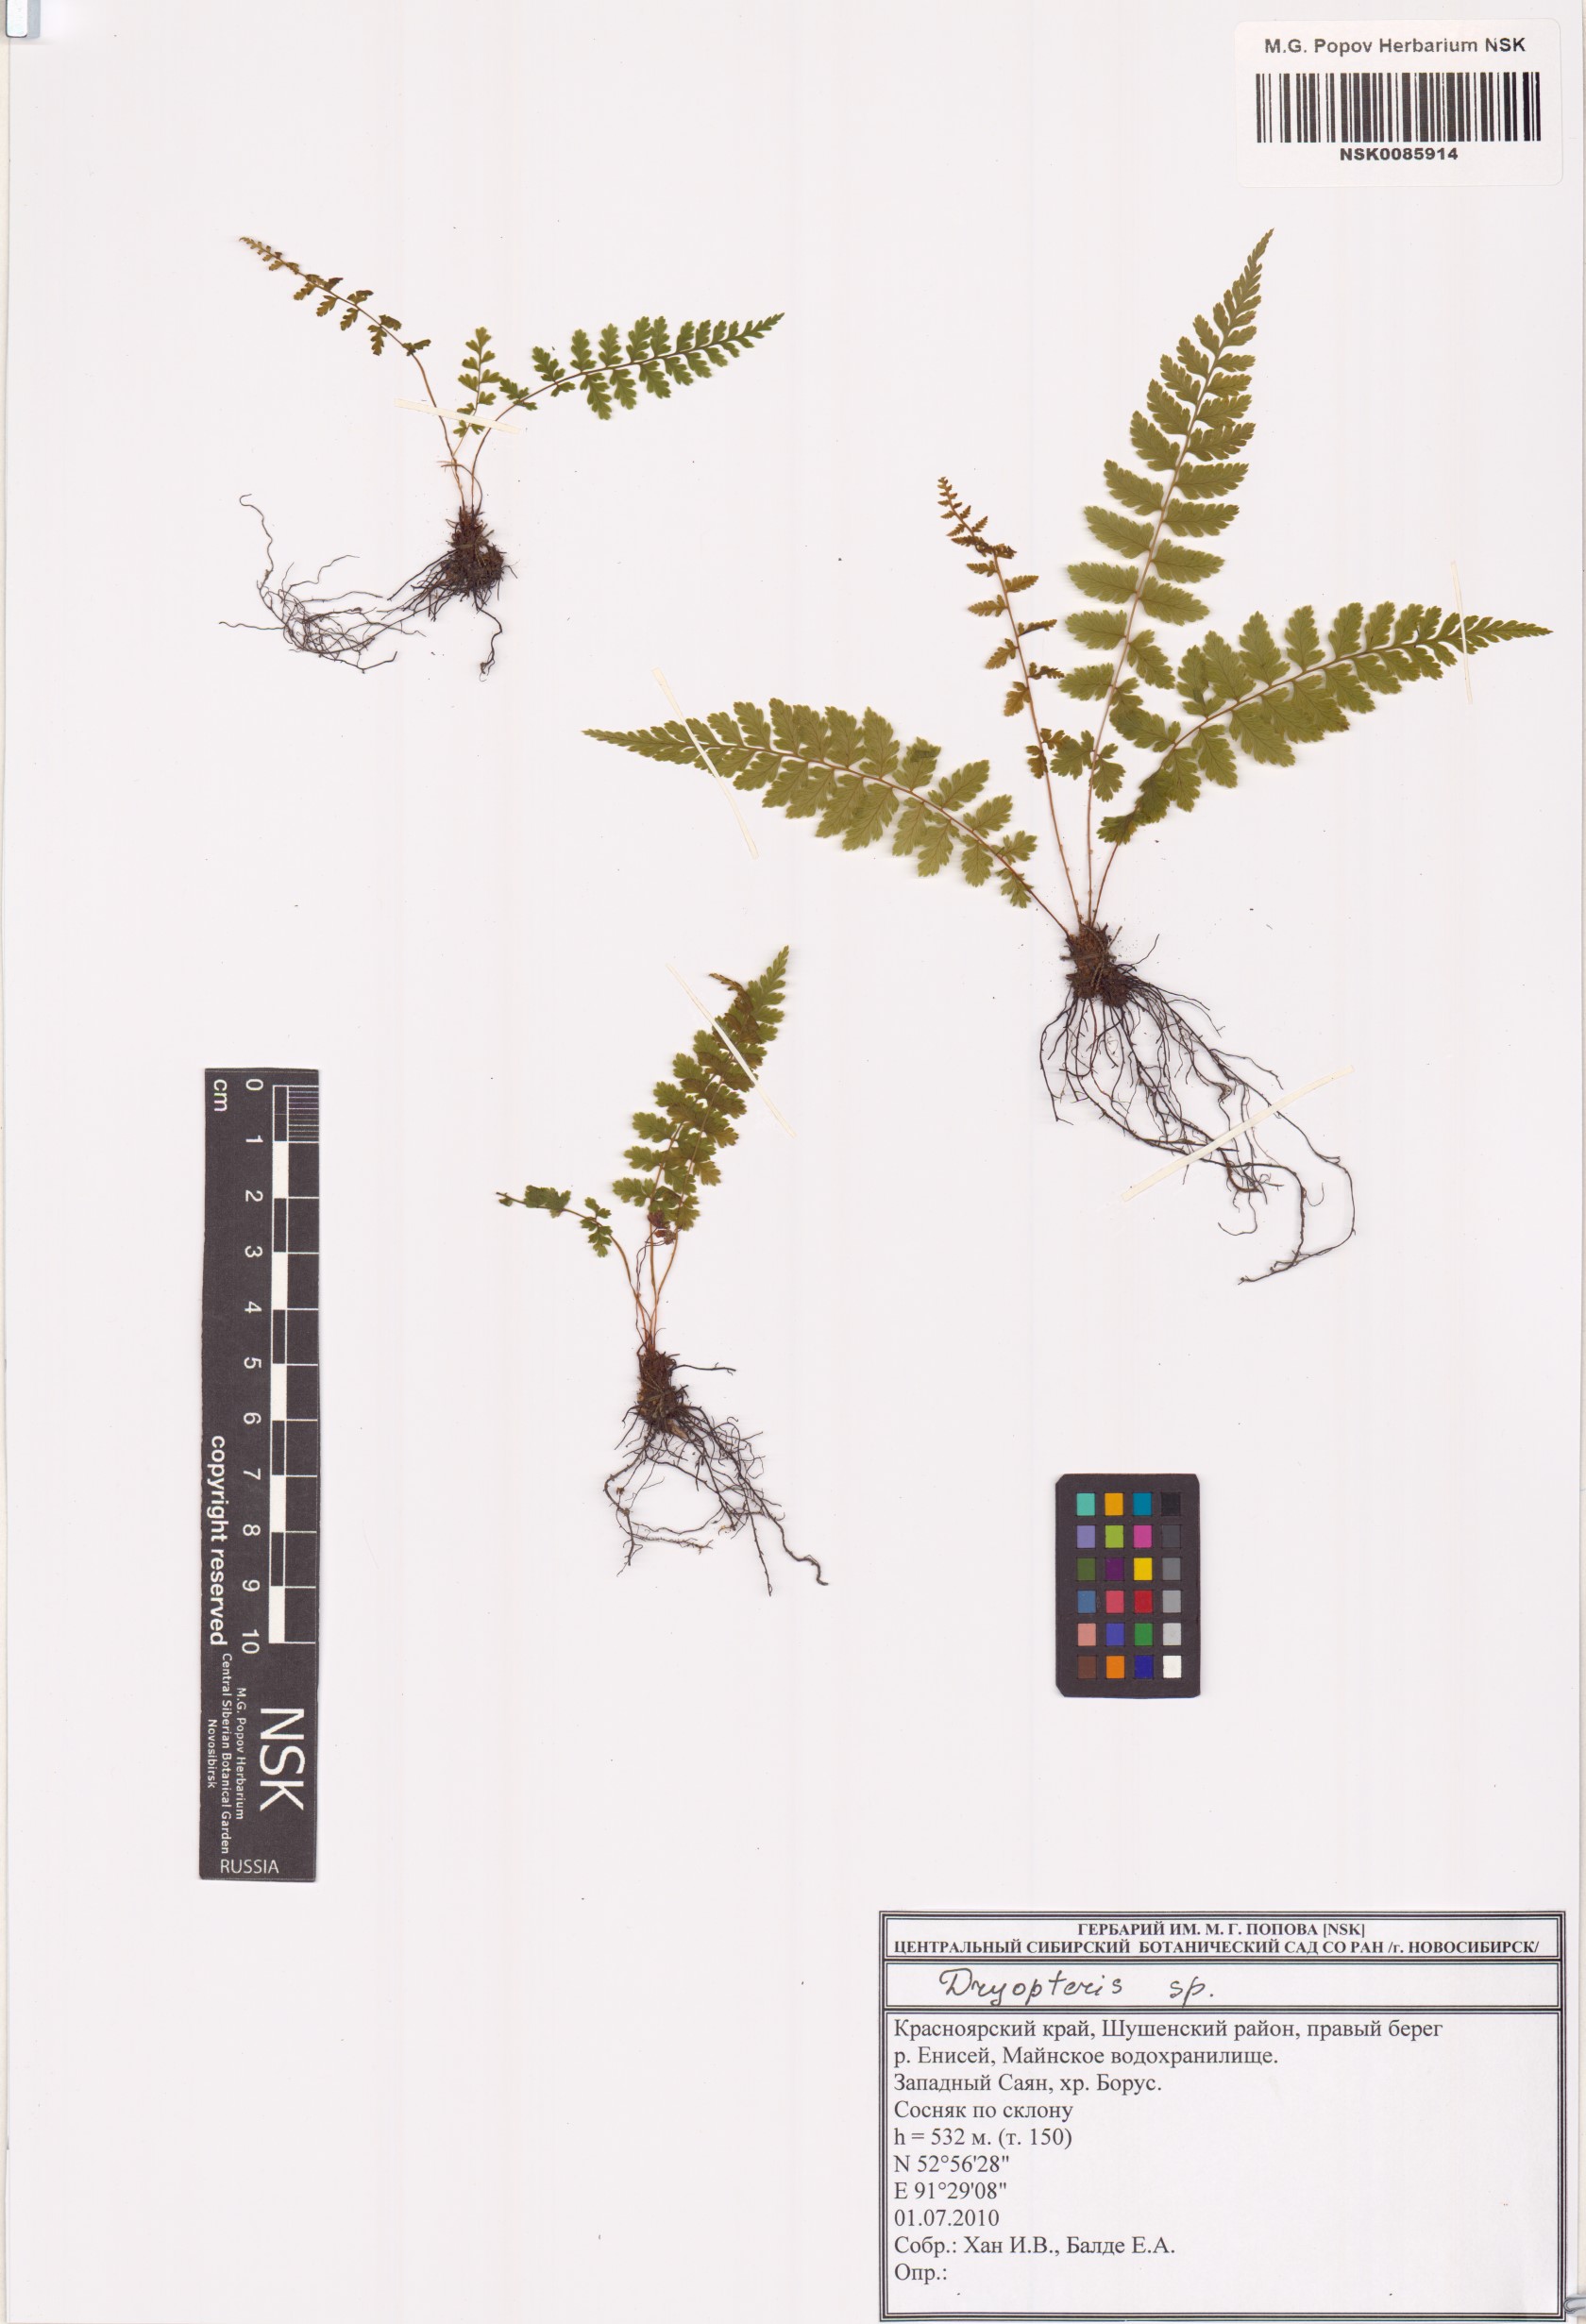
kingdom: Plantae
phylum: Tracheophyta
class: Polypodiopsida
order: Polypodiales
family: Dryopteridaceae
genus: Dryopteris
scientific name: Dryopteris
